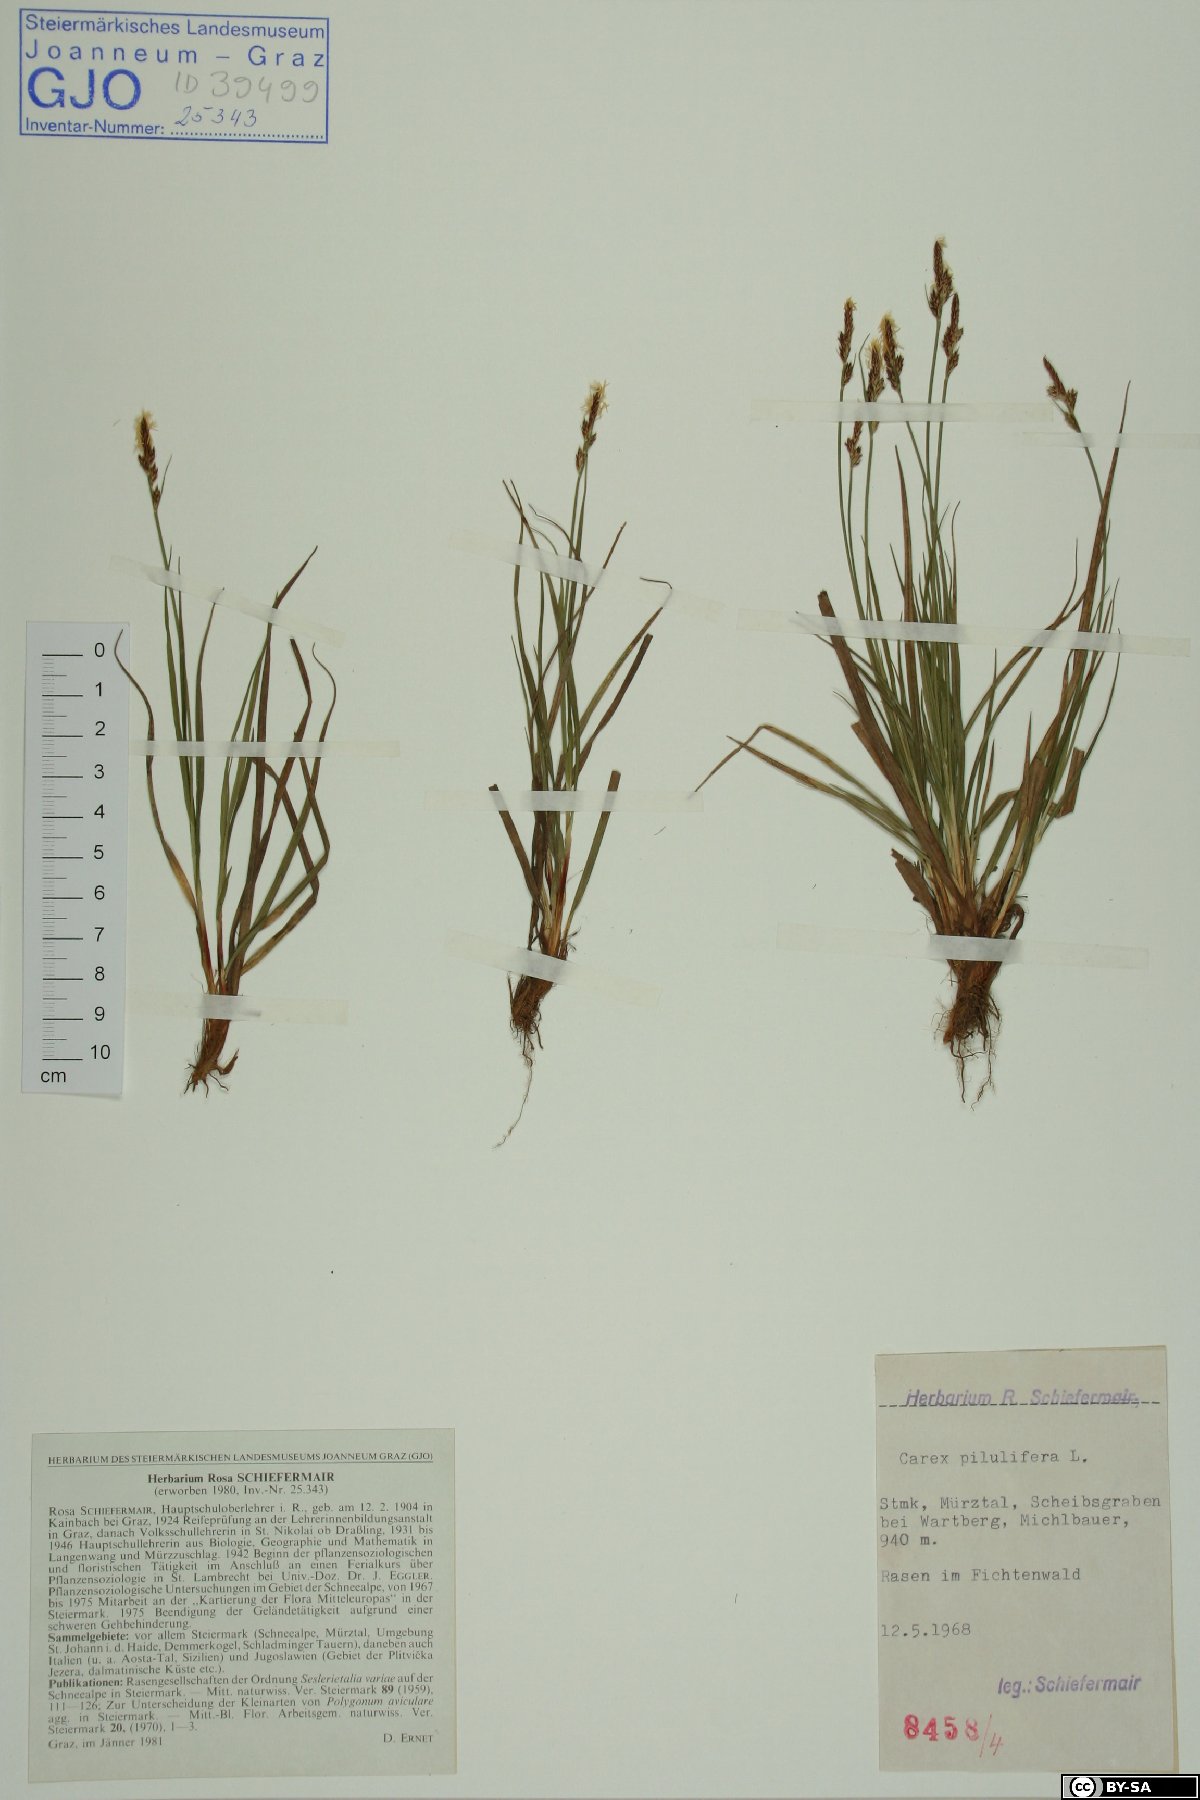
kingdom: Plantae
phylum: Tracheophyta
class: Liliopsida
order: Poales
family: Cyperaceae
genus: Carex
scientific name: Carex pilulifera
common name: Pill sedge
